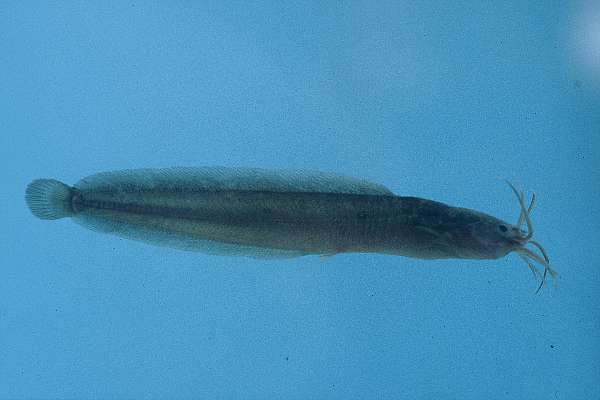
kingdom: Animalia
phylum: Chordata
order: Siluriformes
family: Clariidae
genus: Clarias
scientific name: Clarias theodorae
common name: Snake catfish
